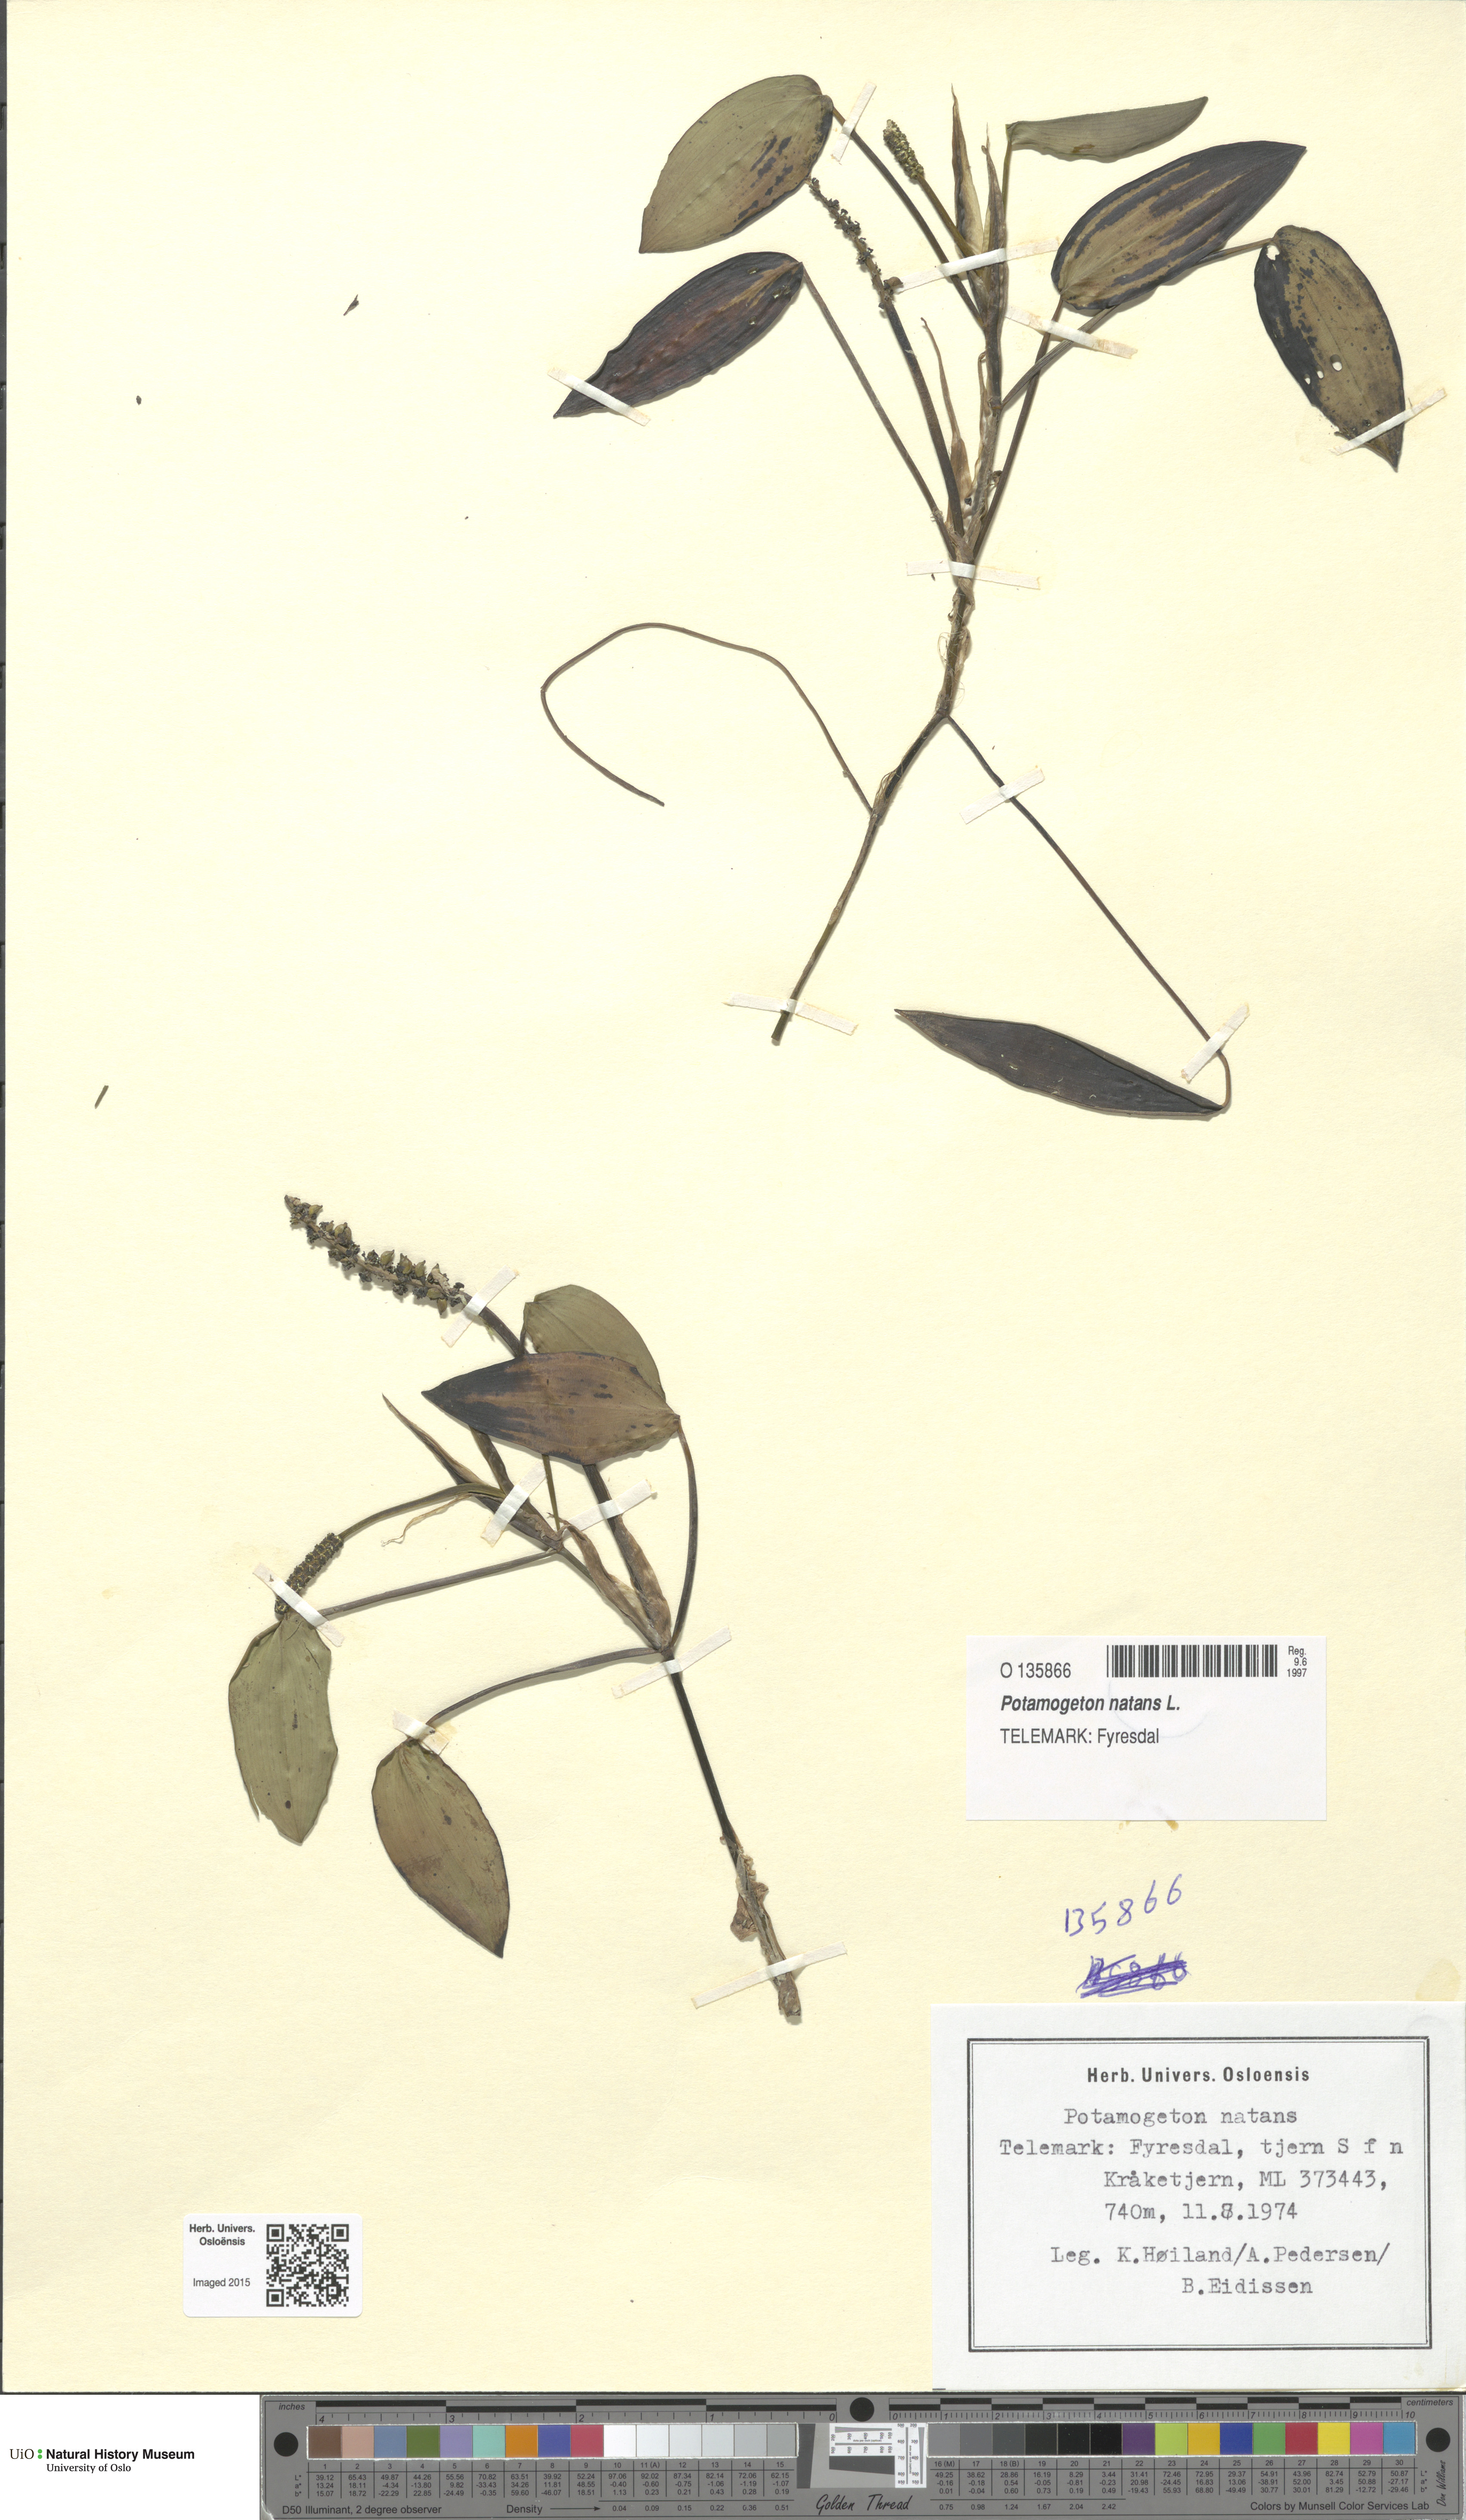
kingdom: Plantae
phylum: Tracheophyta
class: Liliopsida
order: Alismatales
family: Potamogetonaceae
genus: Potamogeton
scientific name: Potamogeton natans
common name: Broad-leaved pondweed
